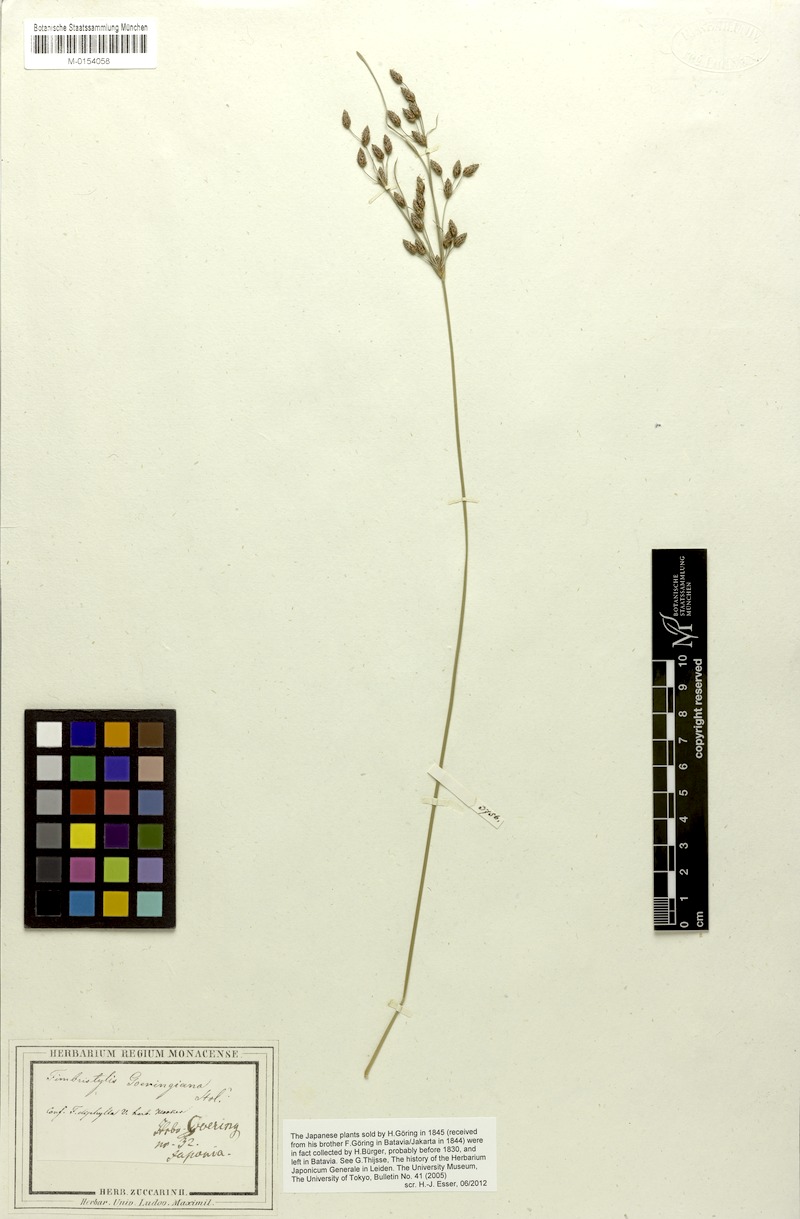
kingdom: Plantae
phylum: Tracheophyta
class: Liliopsida
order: Poales
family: Cyperaceae
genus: Fimbristylis
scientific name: Fimbristylis dichotoma
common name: Forked fimbry
